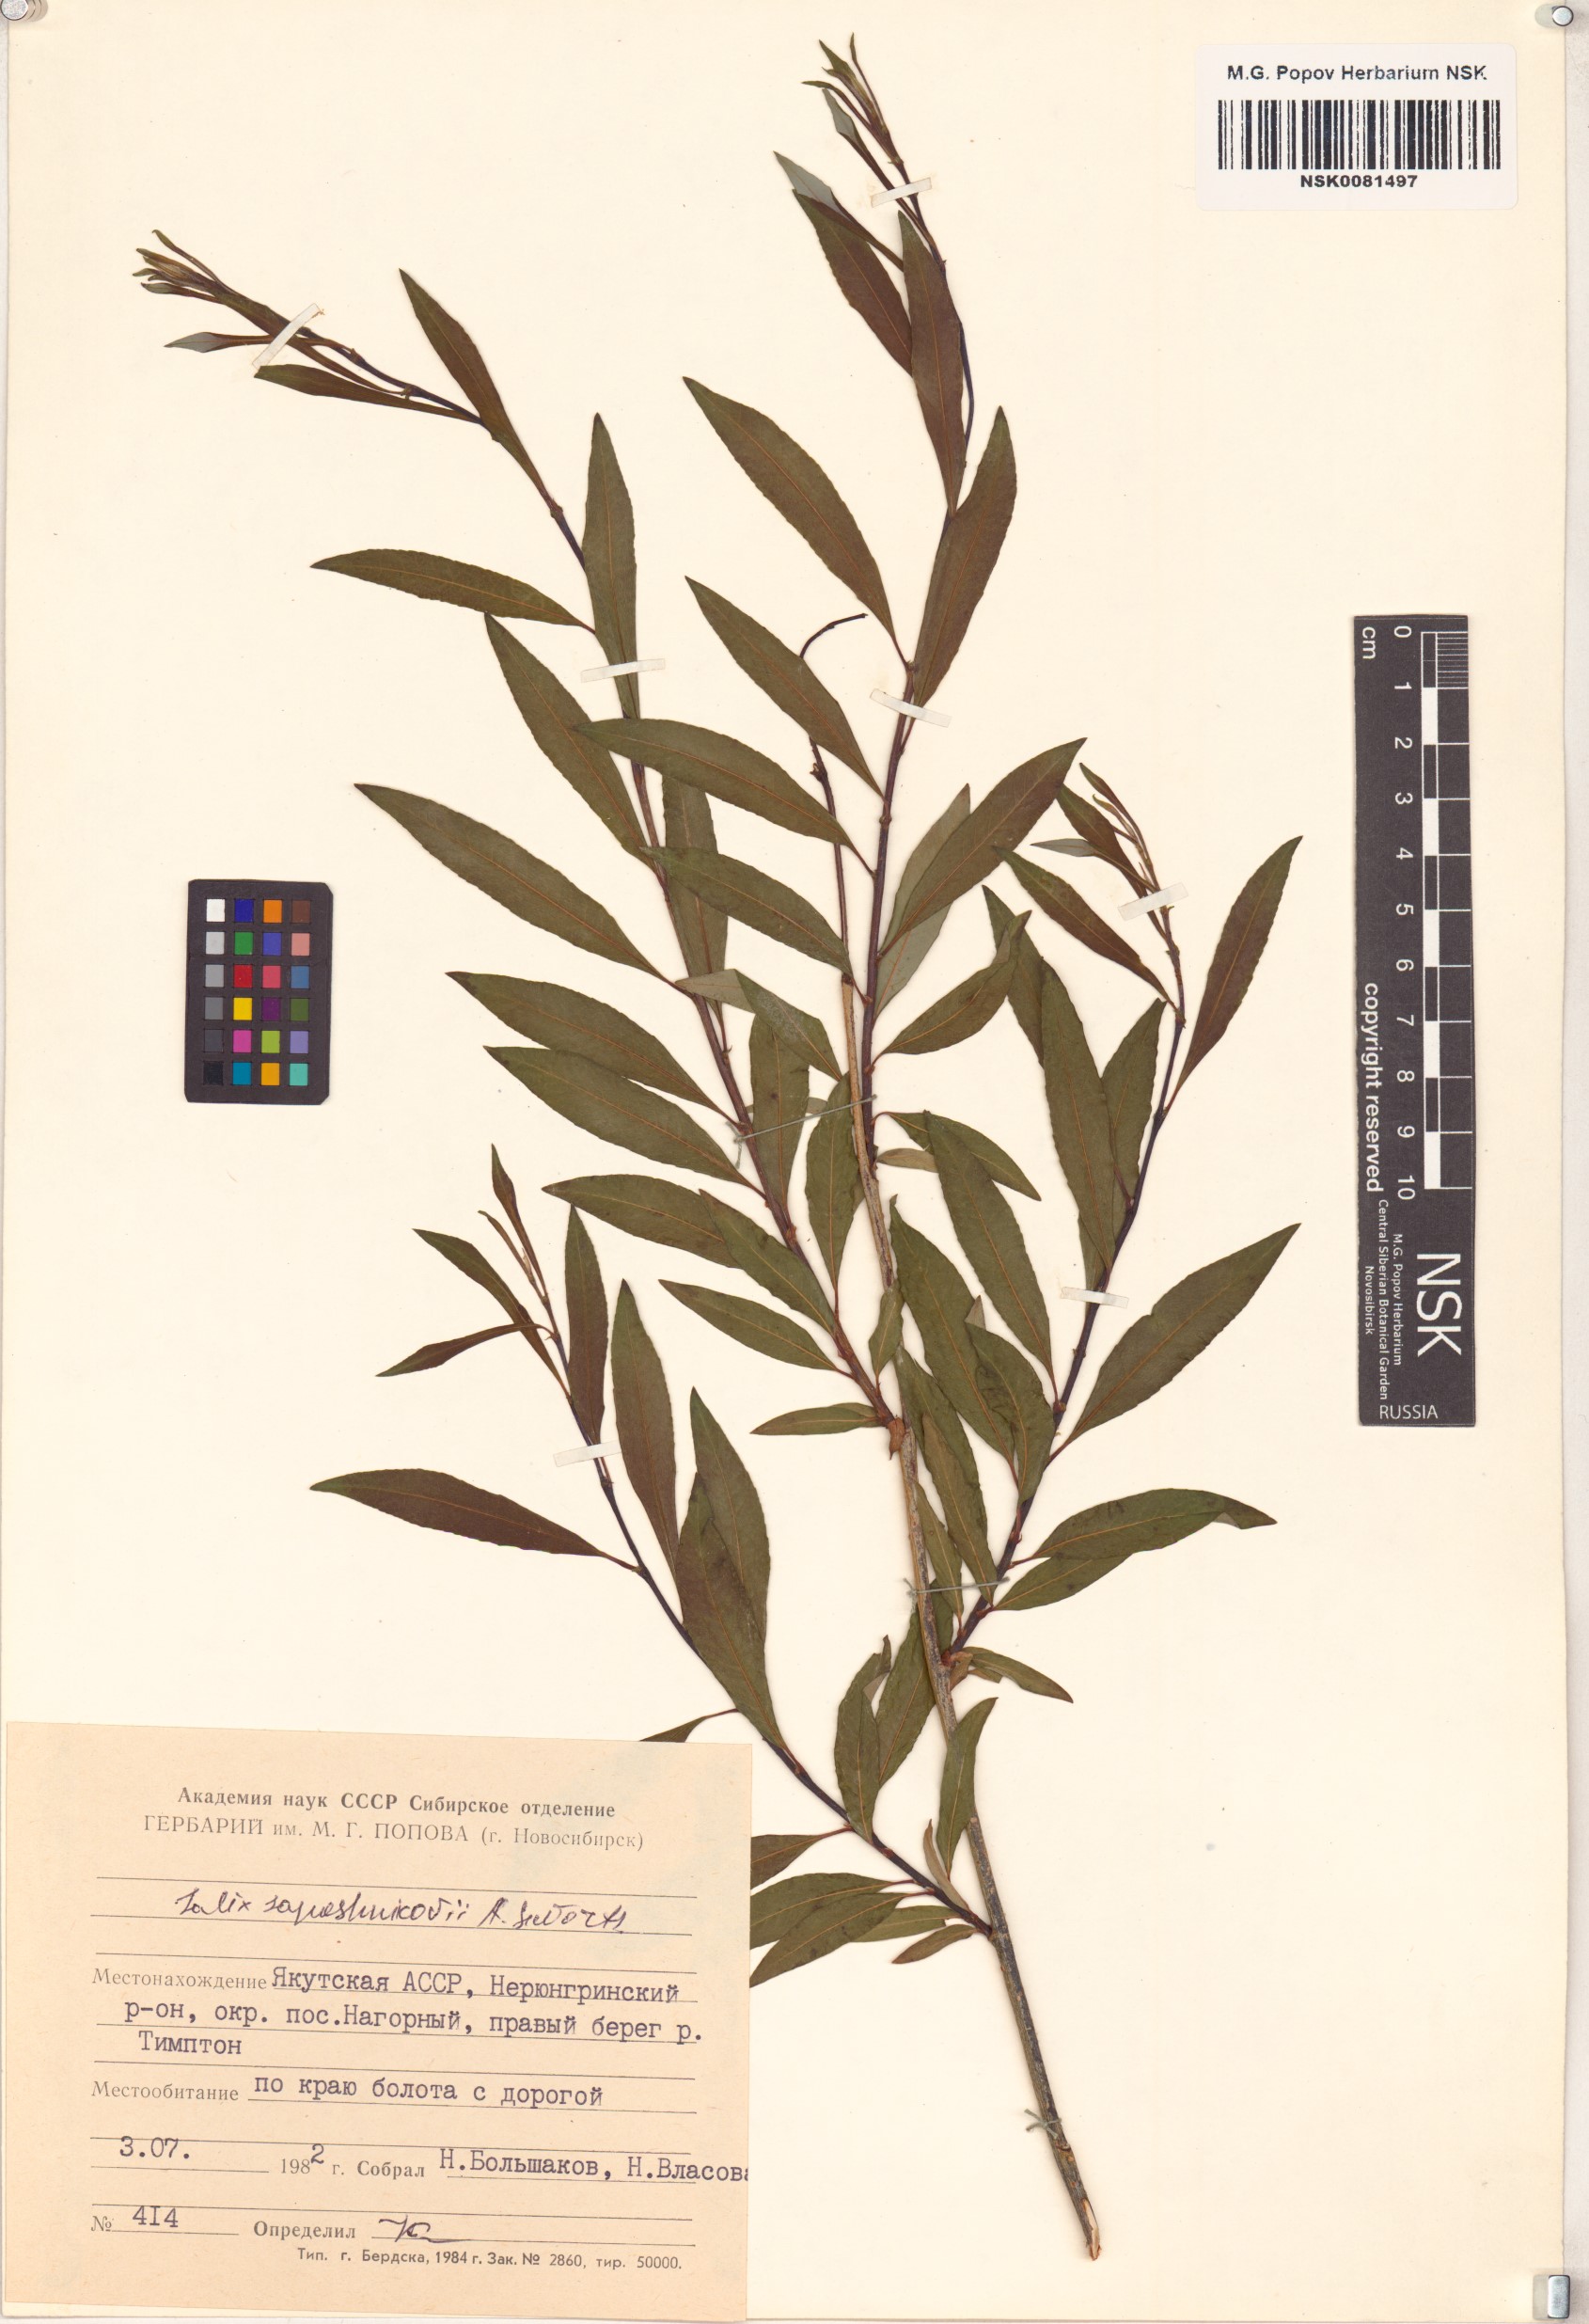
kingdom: Plantae
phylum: Tracheophyta
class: Magnoliopsida
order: Malpighiales
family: Salicaceae
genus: Salix
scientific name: Salix saposhnikovii
